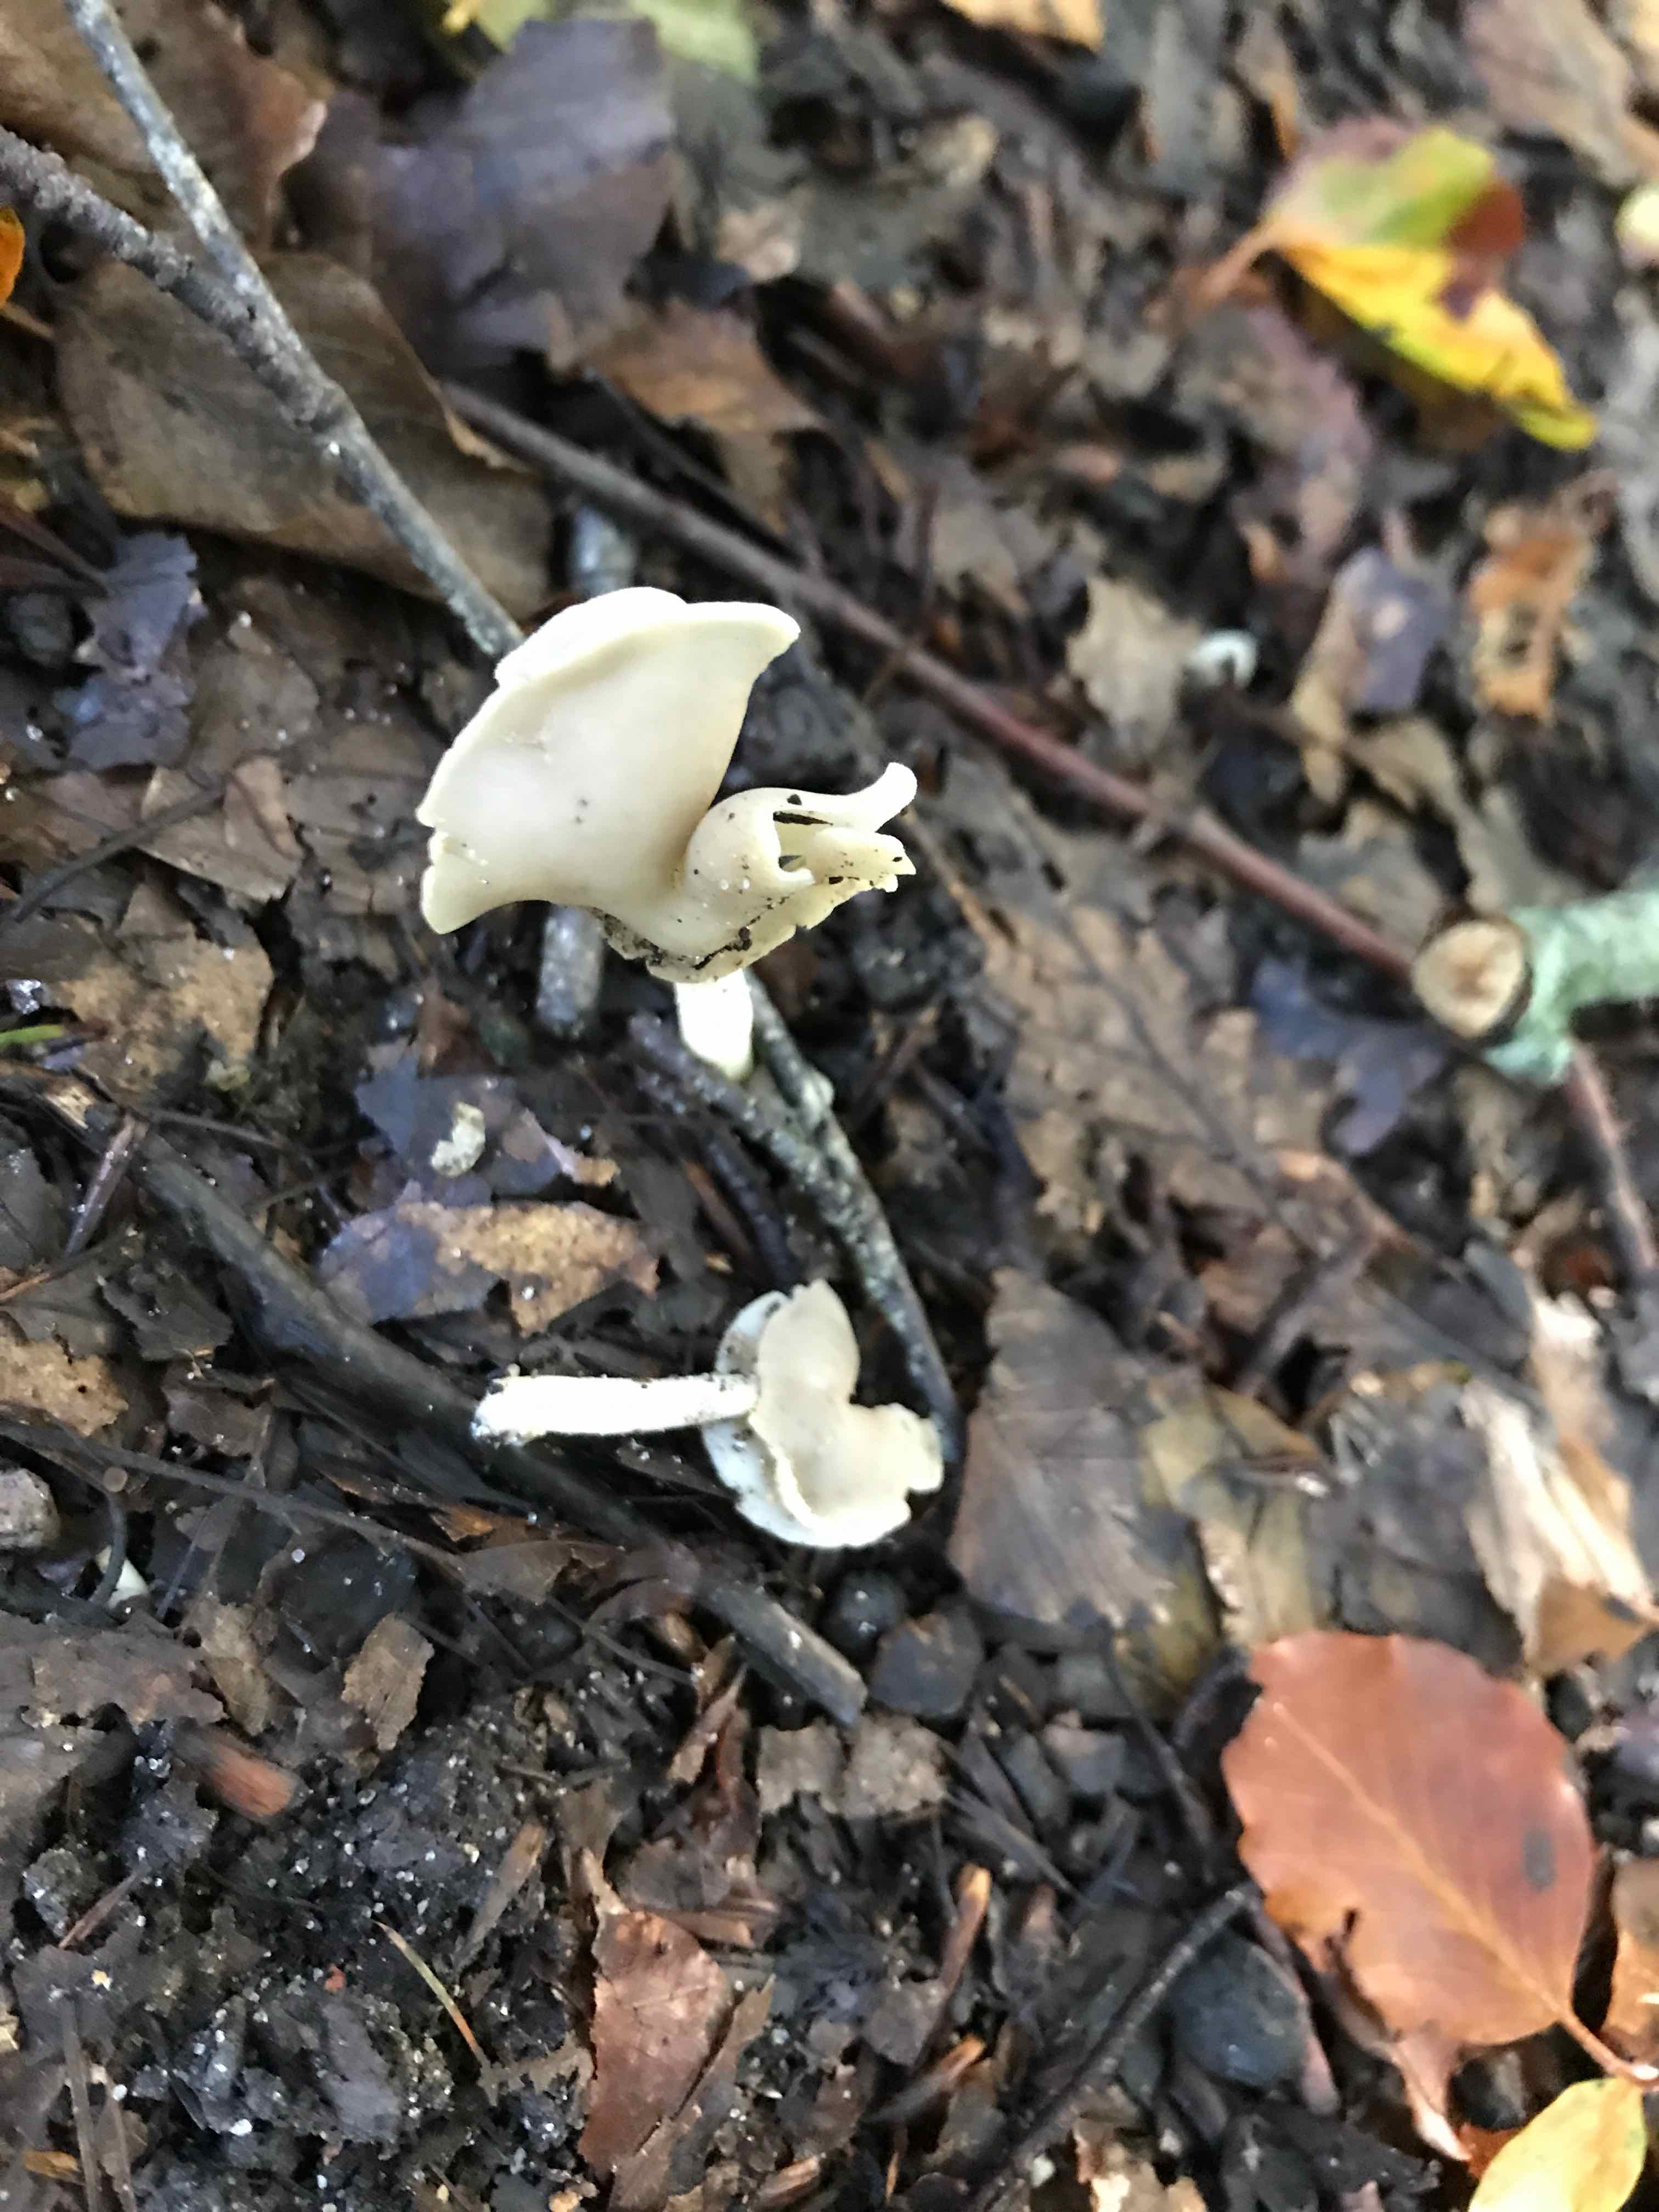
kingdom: Fungi
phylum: Ascomycota
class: Pezizomycetes
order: Pezizales
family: Helvellaceae
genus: Helvella
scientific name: Helvella elastica
